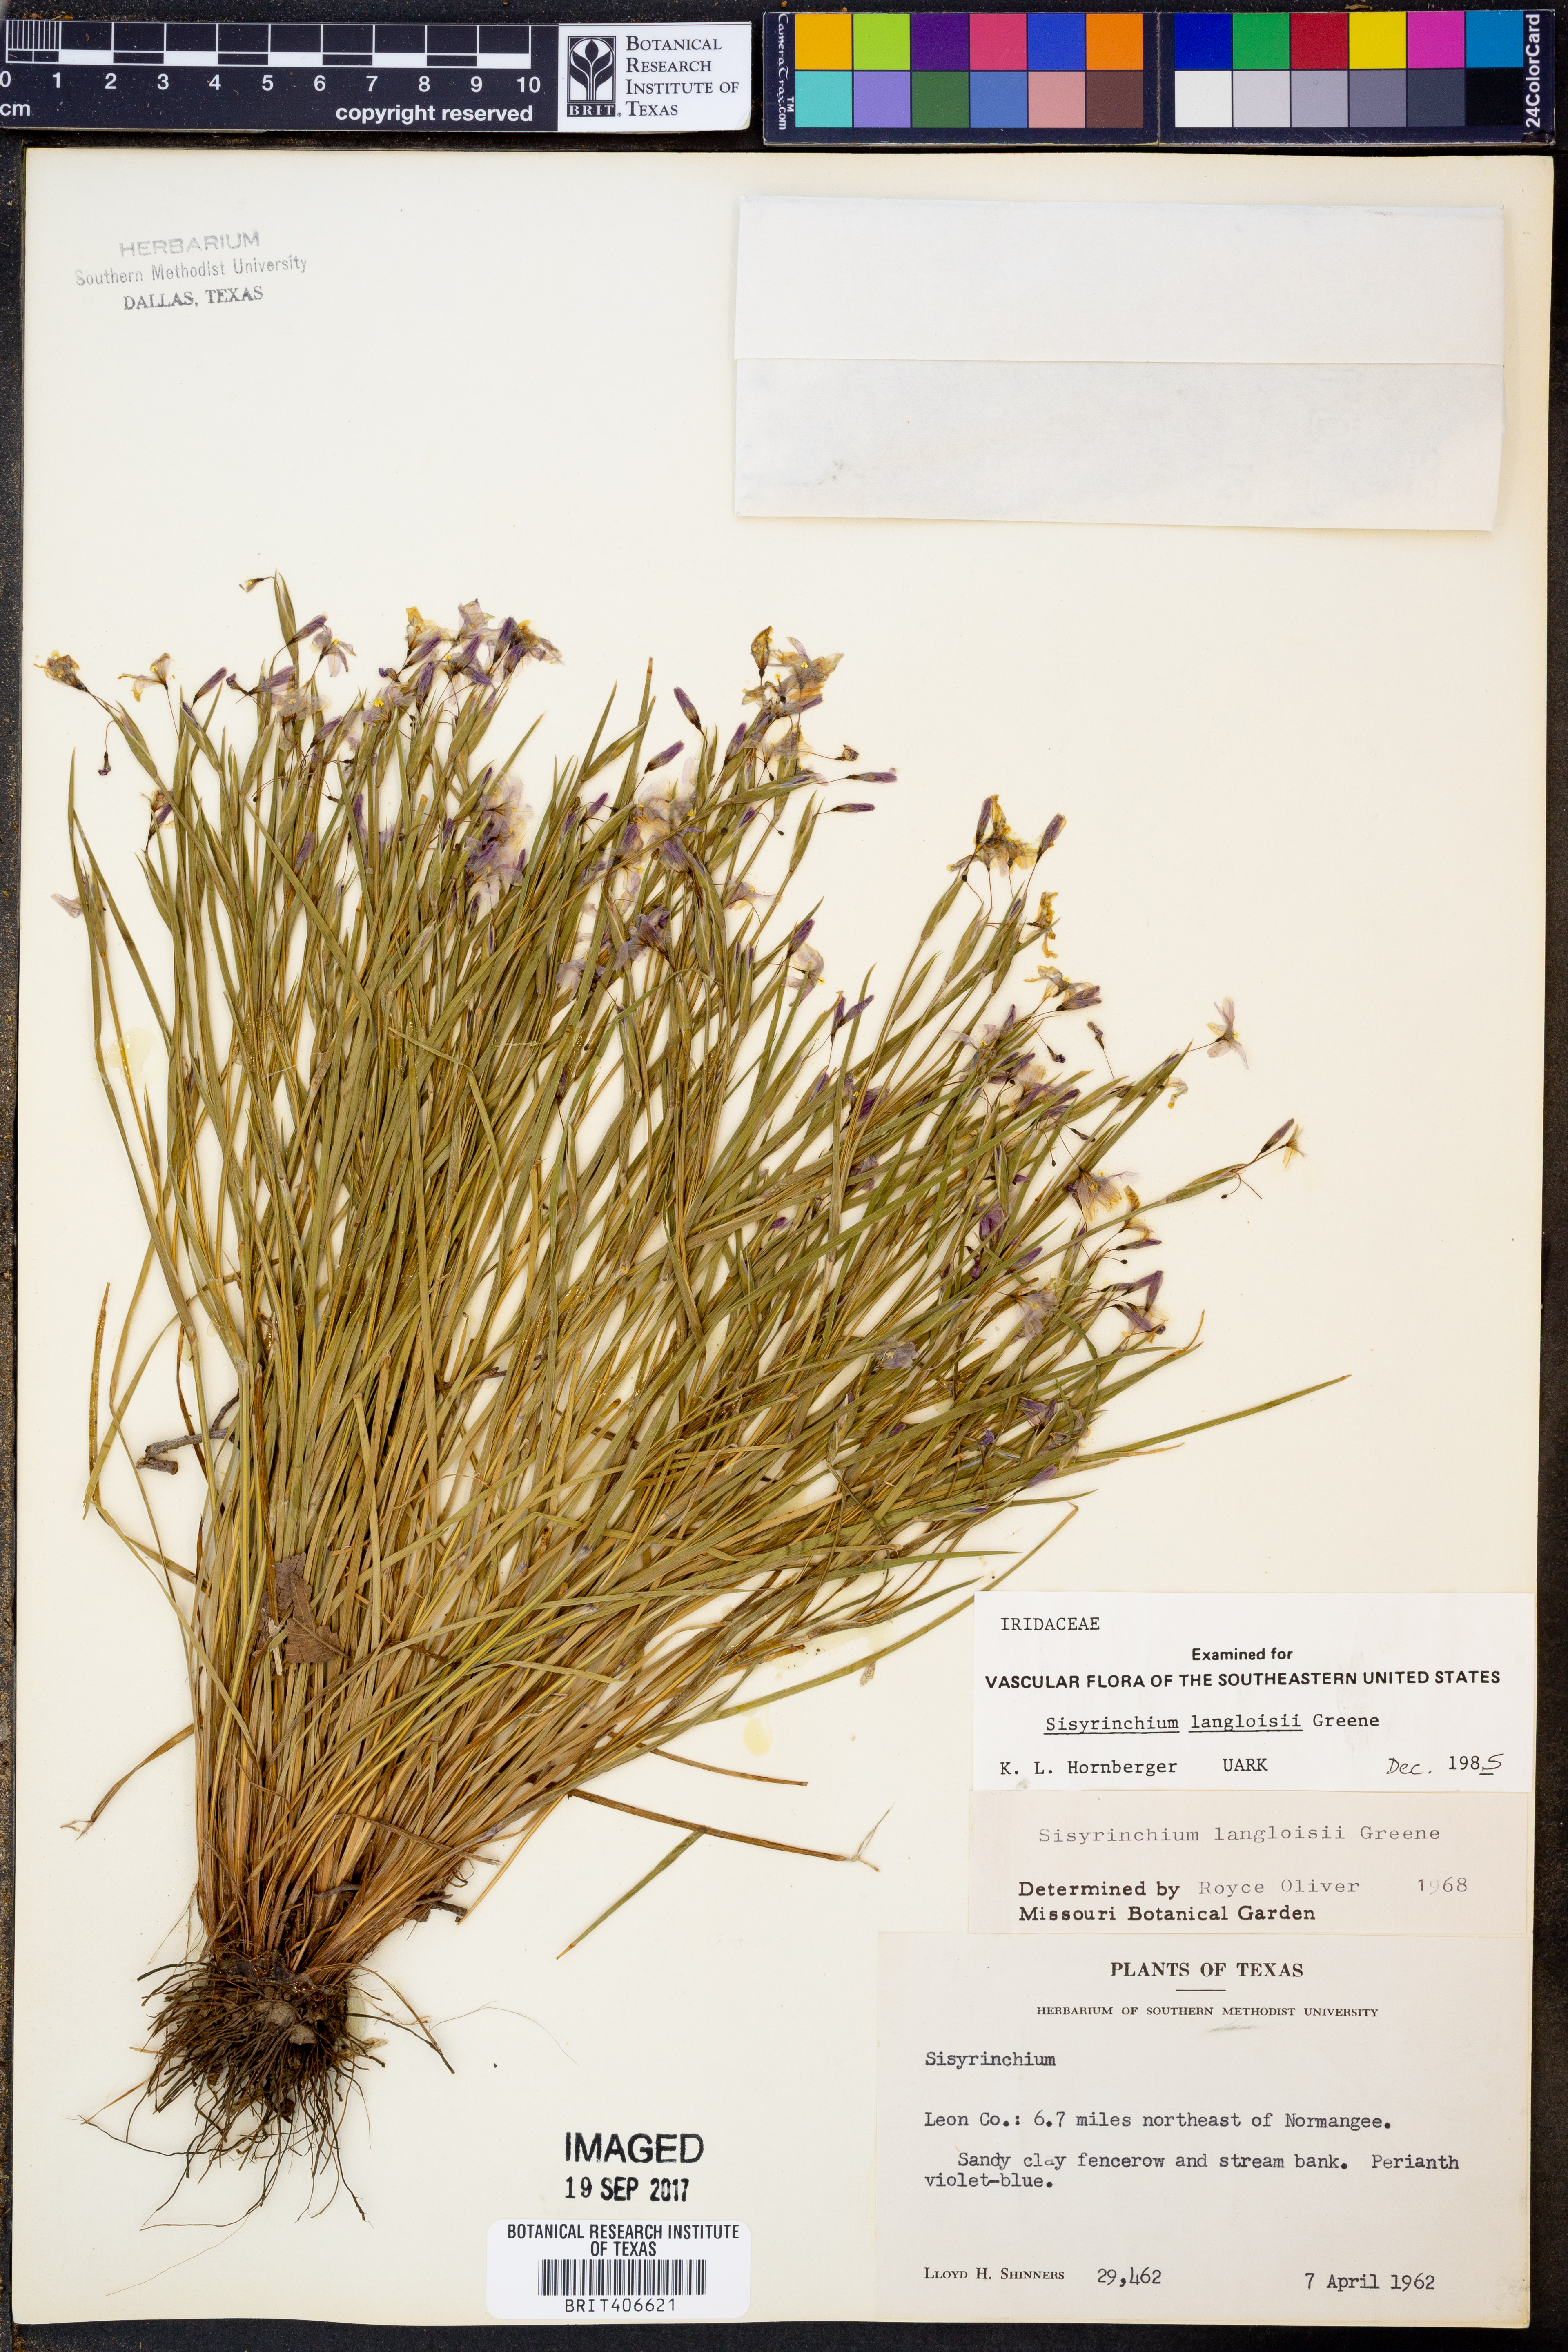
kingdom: Plantae
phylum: Tracheophyta
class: Liliopsida
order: Asparagales
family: Iridaceae
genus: Sisyrinchium
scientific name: Sisyrinchium langloisii
